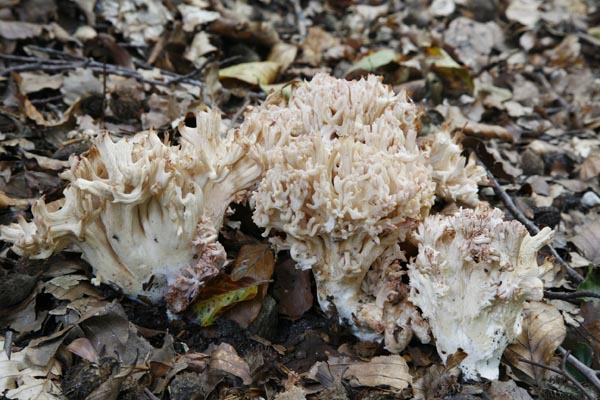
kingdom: Fungi
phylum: Basidiomycota
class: Agaricomycetes
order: Gomphales
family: Gomphaceae
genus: Ramaria
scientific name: Ramaria botrytis
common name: drue-koralsvamp
